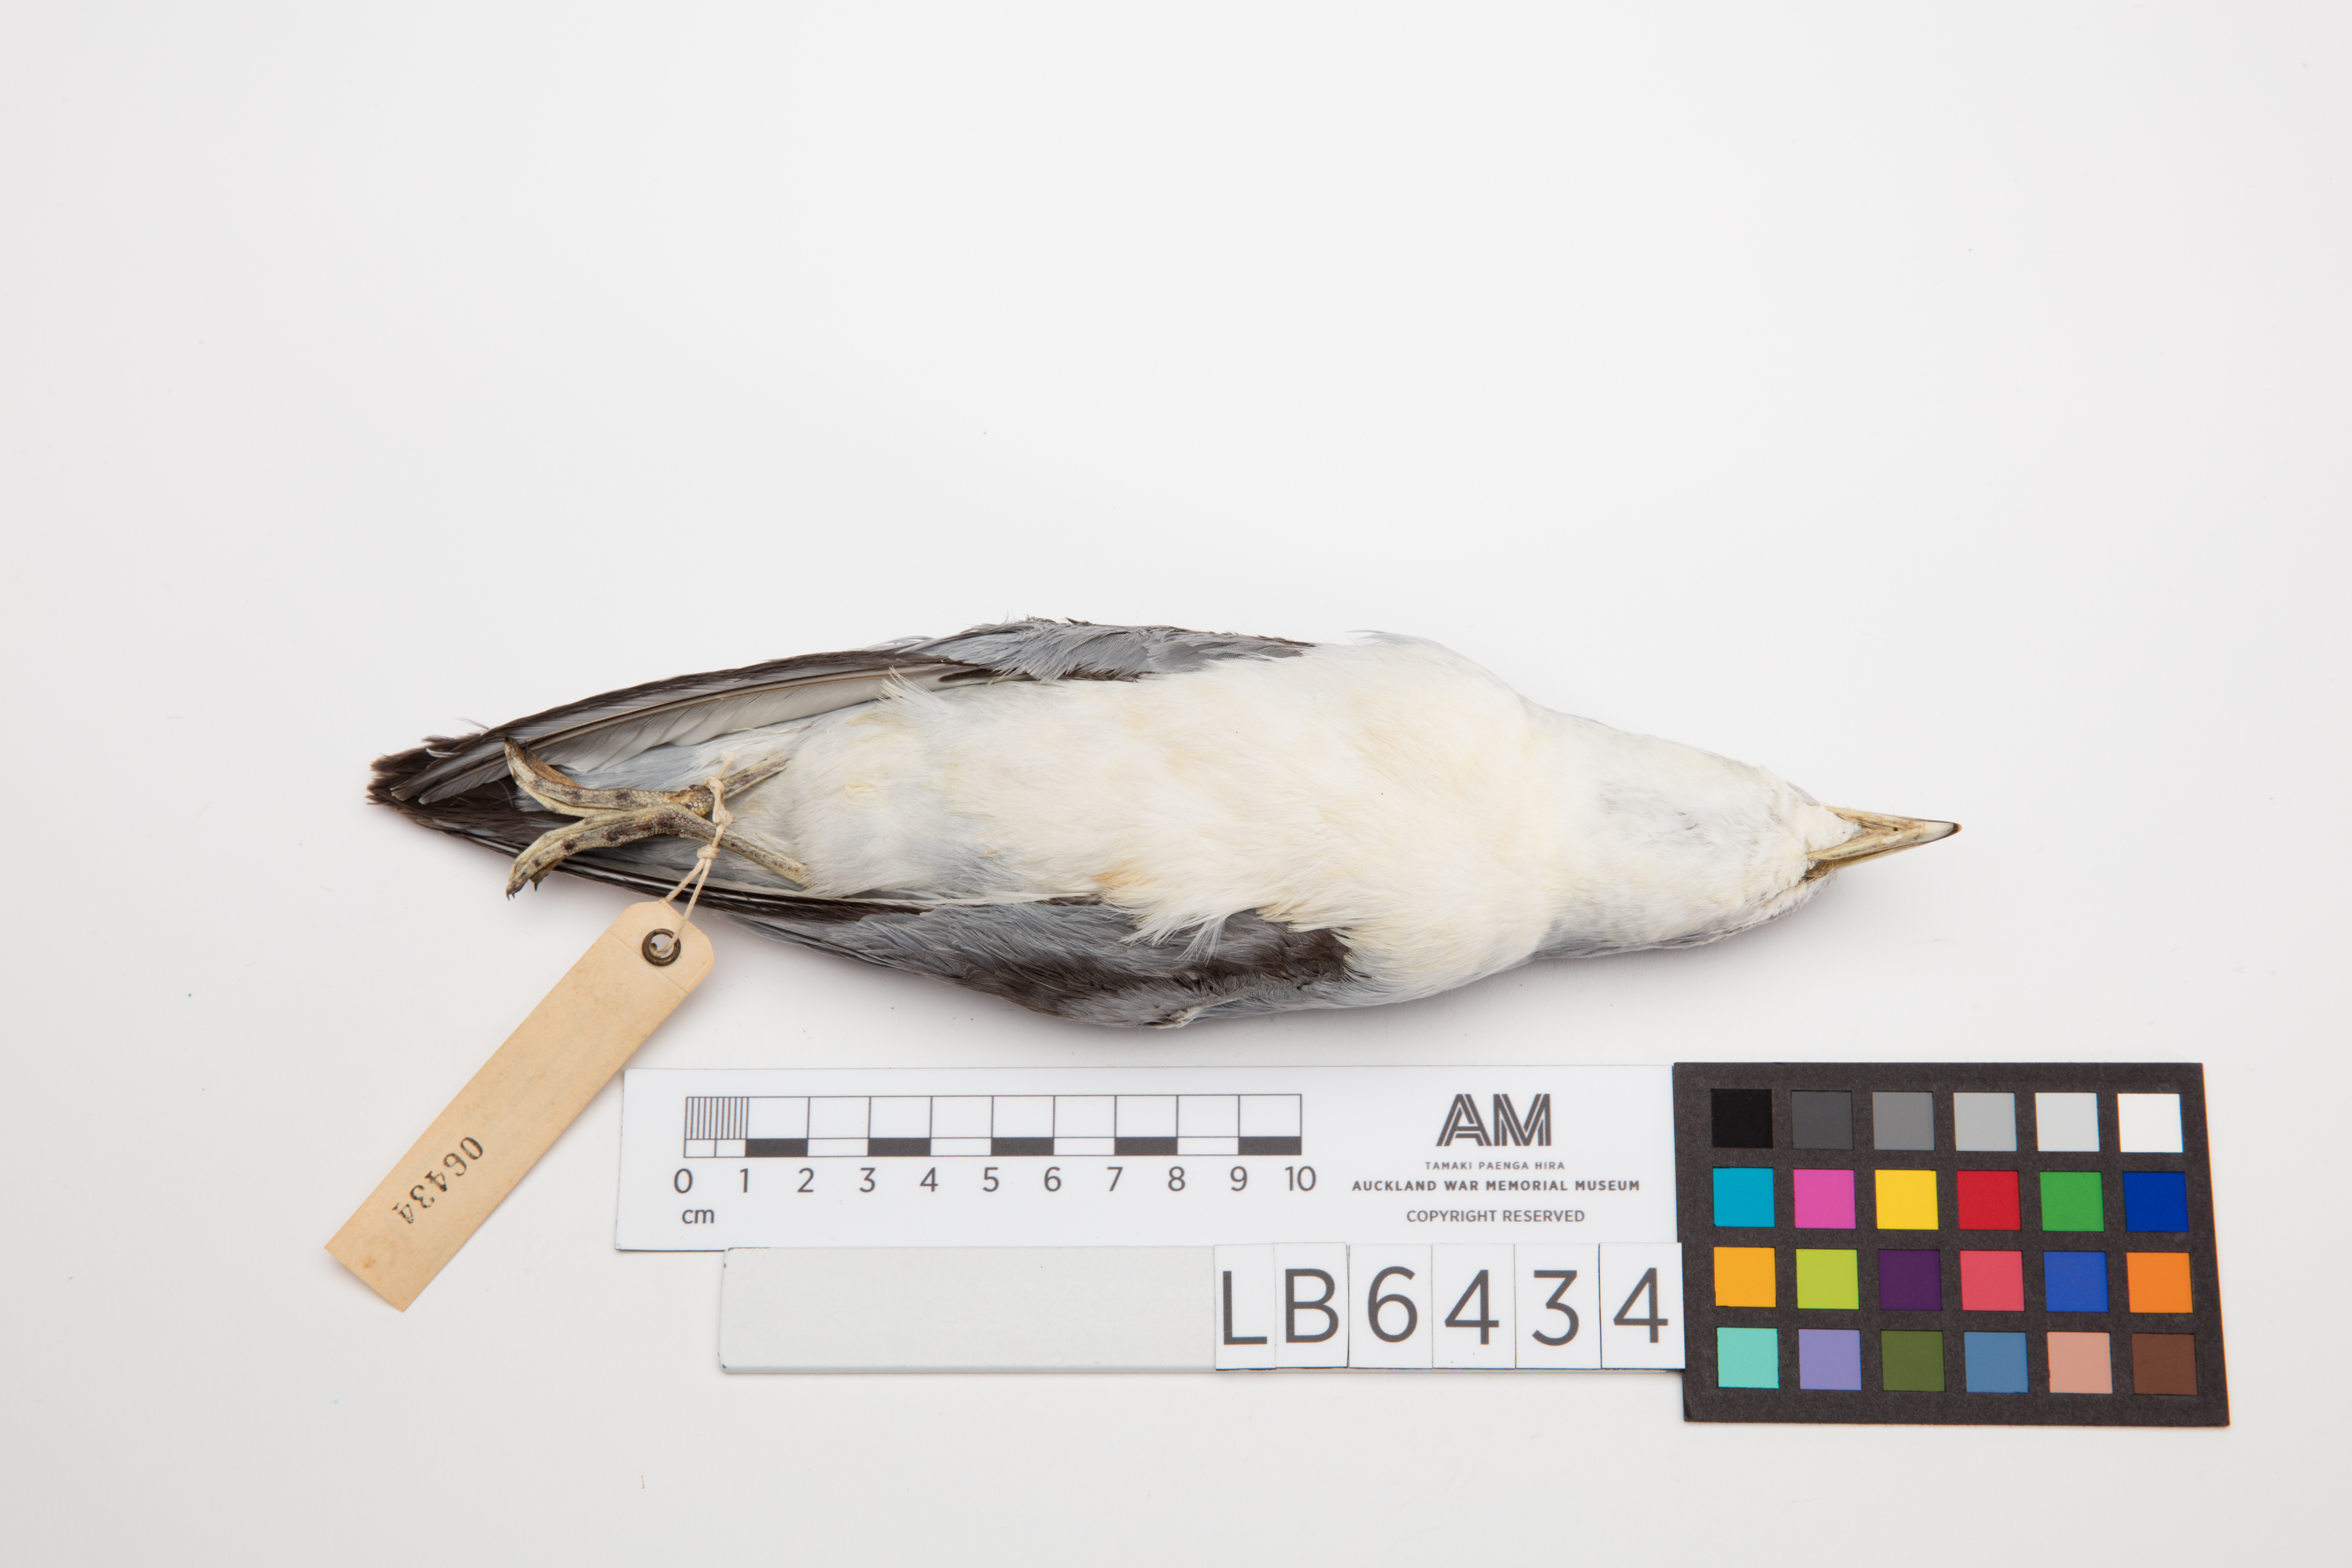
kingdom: Animalia
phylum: Chordata
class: Aves
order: Procellariiformes
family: Procellariidae
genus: Pachyptila
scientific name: Pachyptila turtur
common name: Fairy prion
